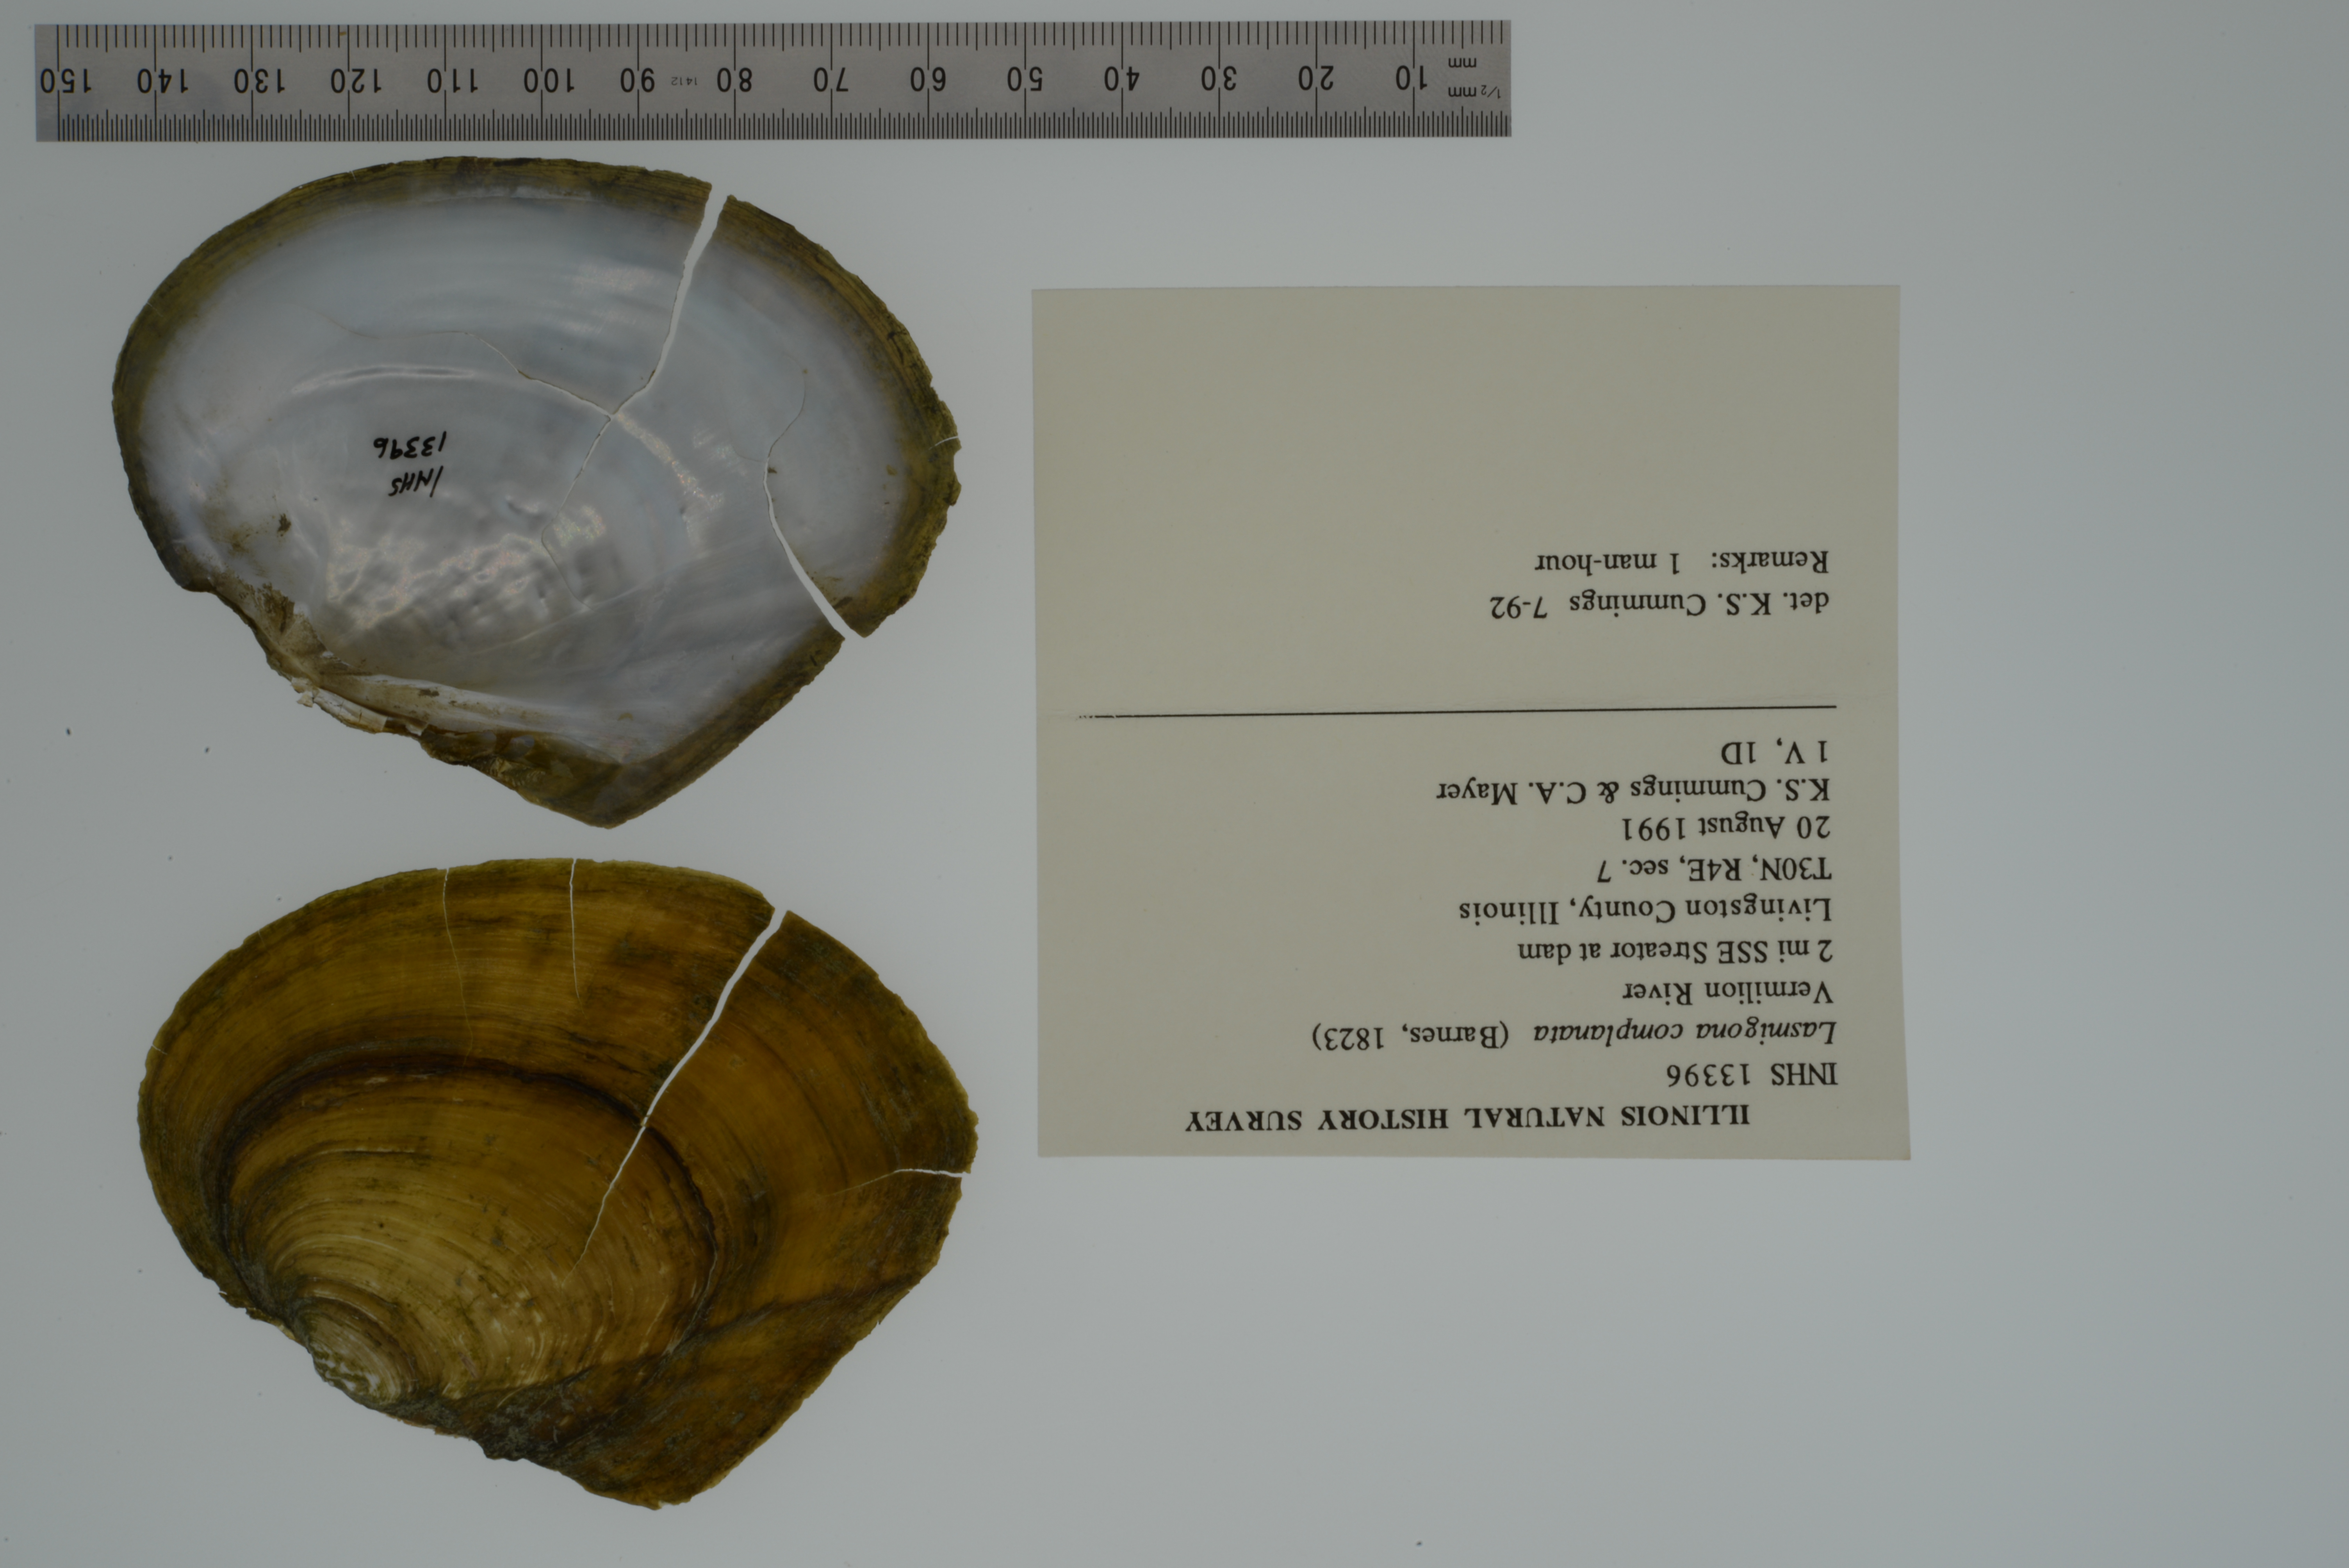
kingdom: Animalia
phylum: Mollusca
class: Bivalvia
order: Unionida
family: Unionidae
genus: Lasmigona
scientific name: Lasmigona complanata
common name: White heelsplitter
